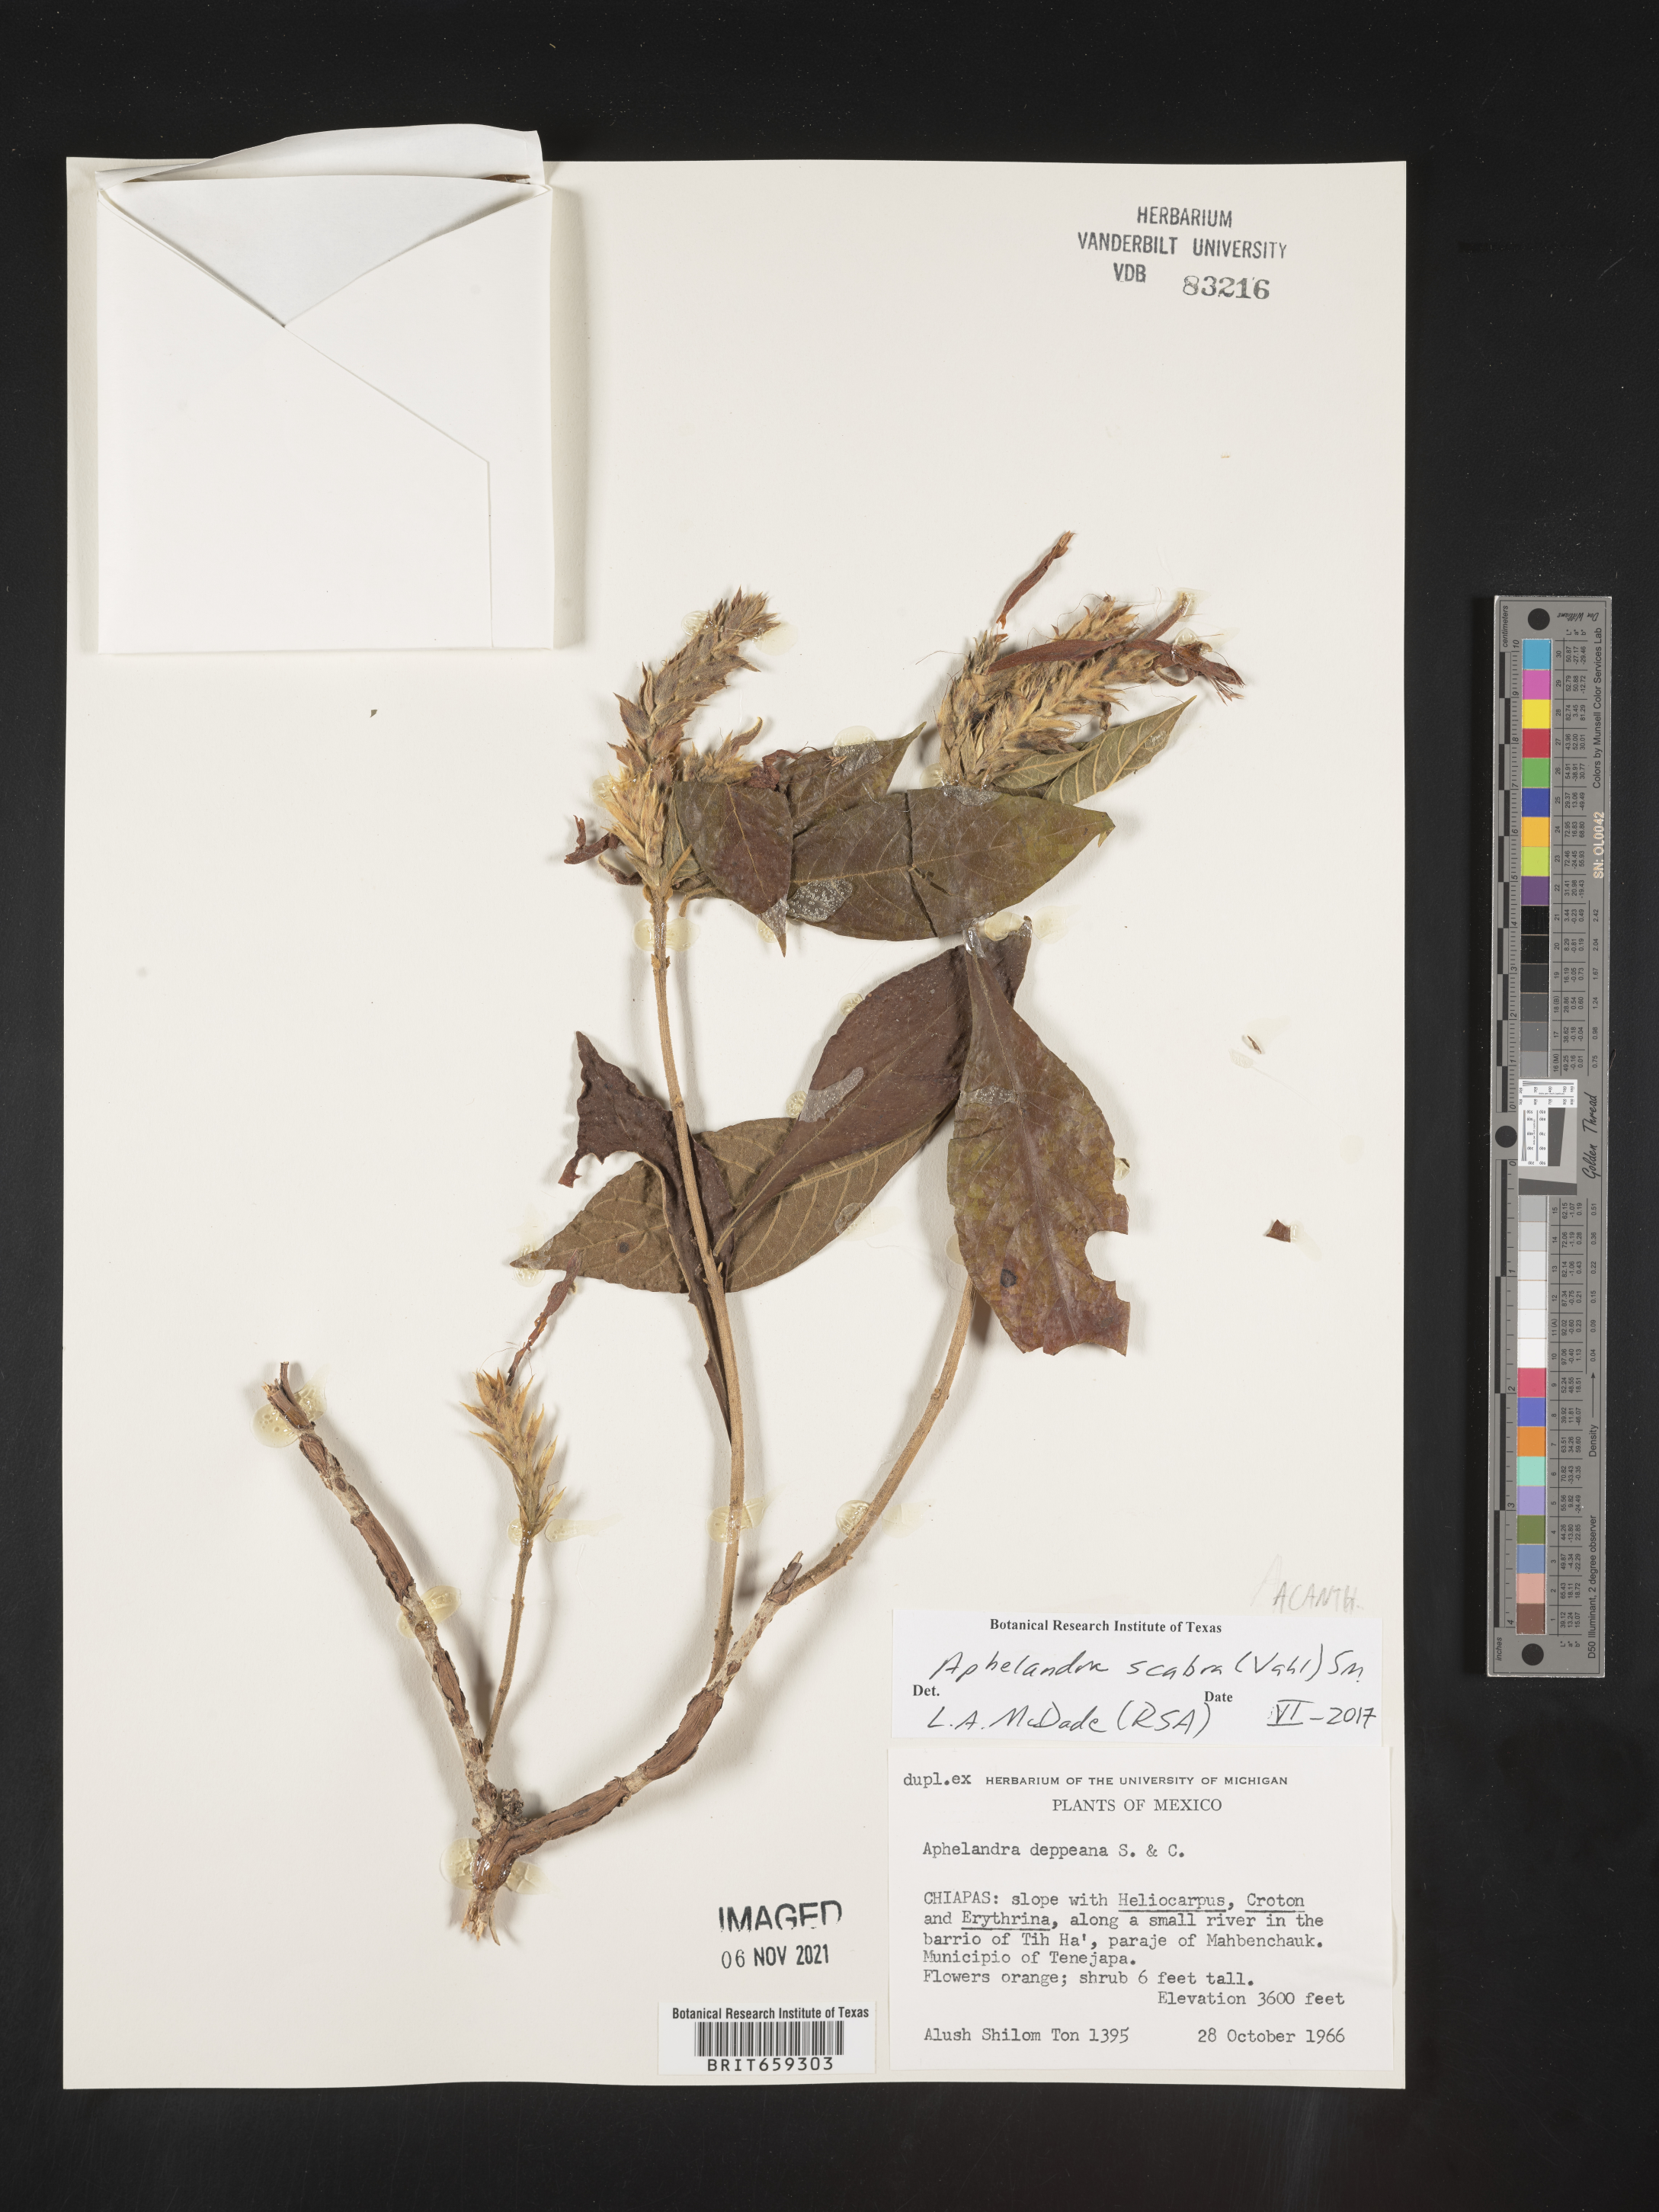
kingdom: Plantae
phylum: Tracheophyta
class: Magnoliopsida
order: Lamiales
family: Acanthaceae
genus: Aphelandra
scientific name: Aphelandra
